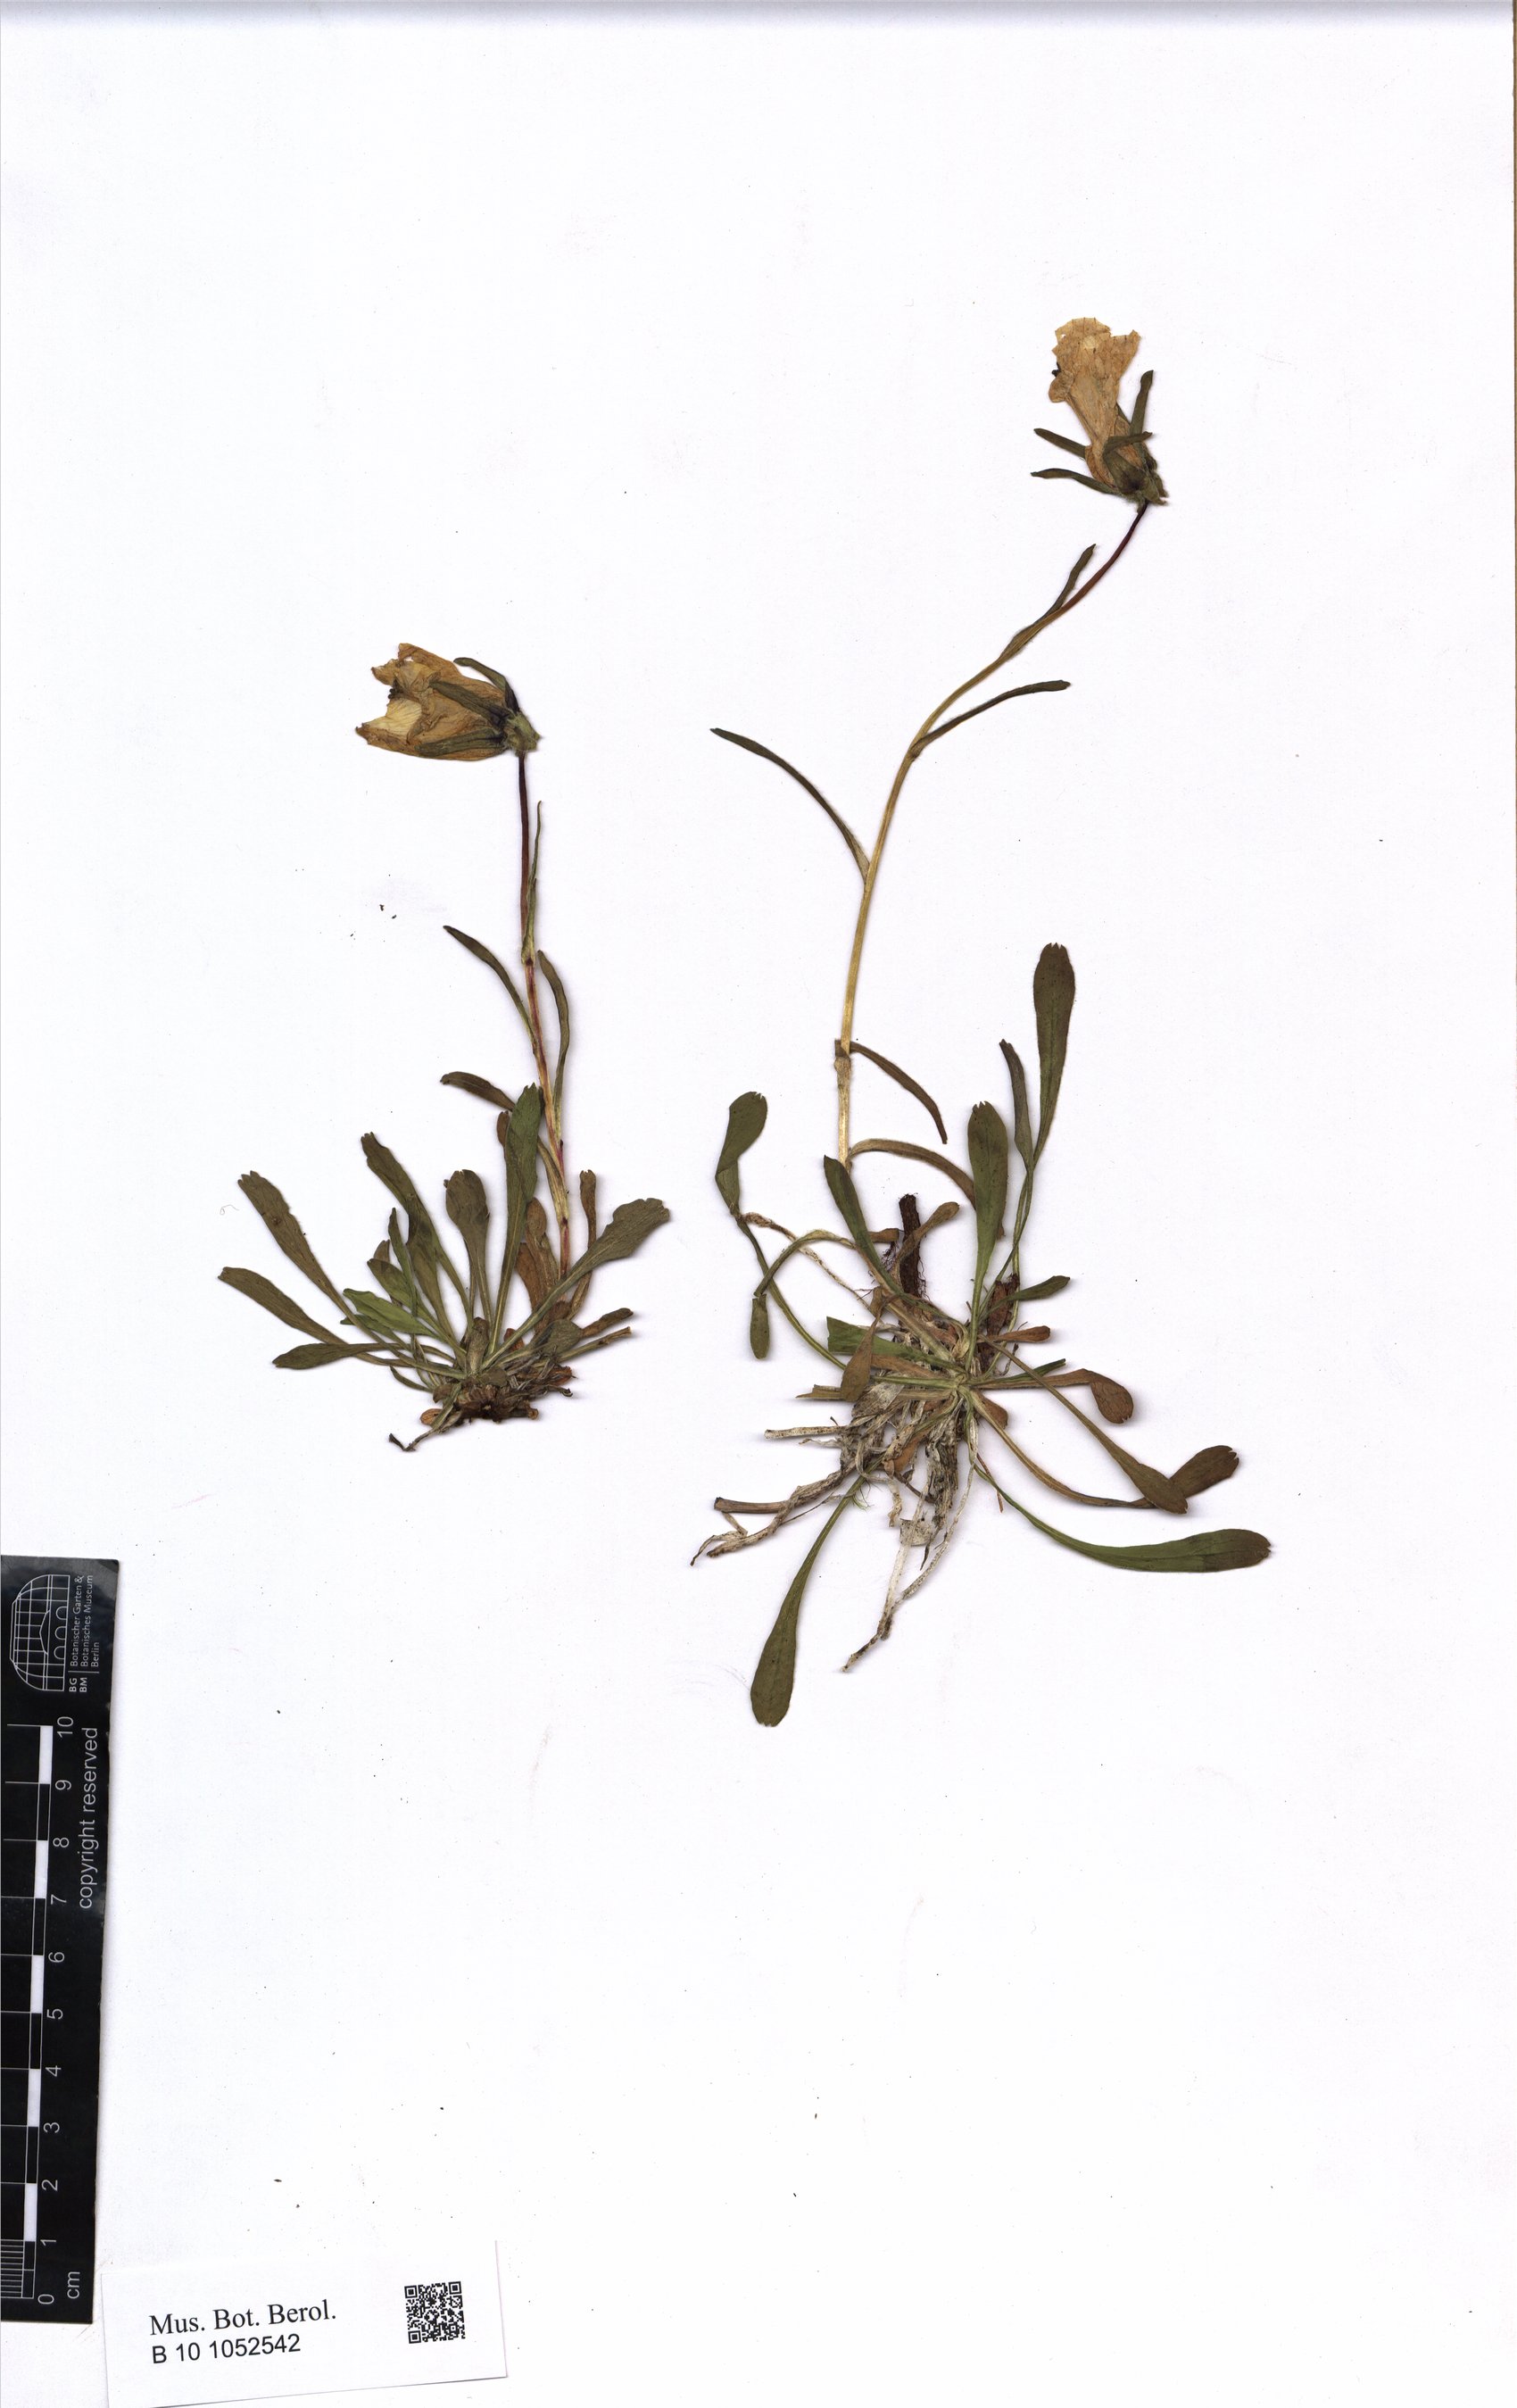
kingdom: Plantae
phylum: Tracheophyta
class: Magnoliopsida
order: Asterales
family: Campanulaceae
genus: Campanula
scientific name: Campanula ciliata
